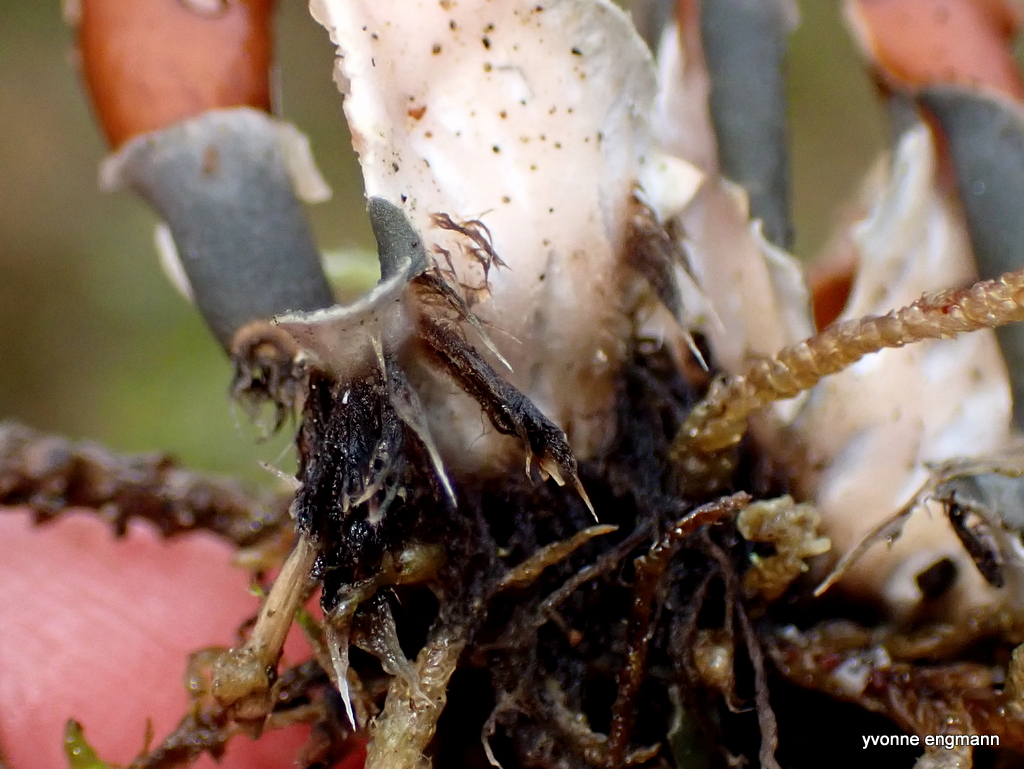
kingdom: Fungi
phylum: Ascomycota
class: Lecanoromycetes
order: Peltigerales
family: Peltigeraceae
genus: Peltigera
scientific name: Peltigera didactyla
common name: liden skjoldlav
